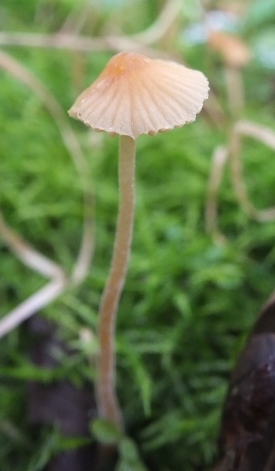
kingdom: Fungi
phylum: Basidiomycota
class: Agaricomycetes
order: Agaricales
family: Hymenogastraceae
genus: Galerina
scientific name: Galerina clavata
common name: kær-hjelmhat
